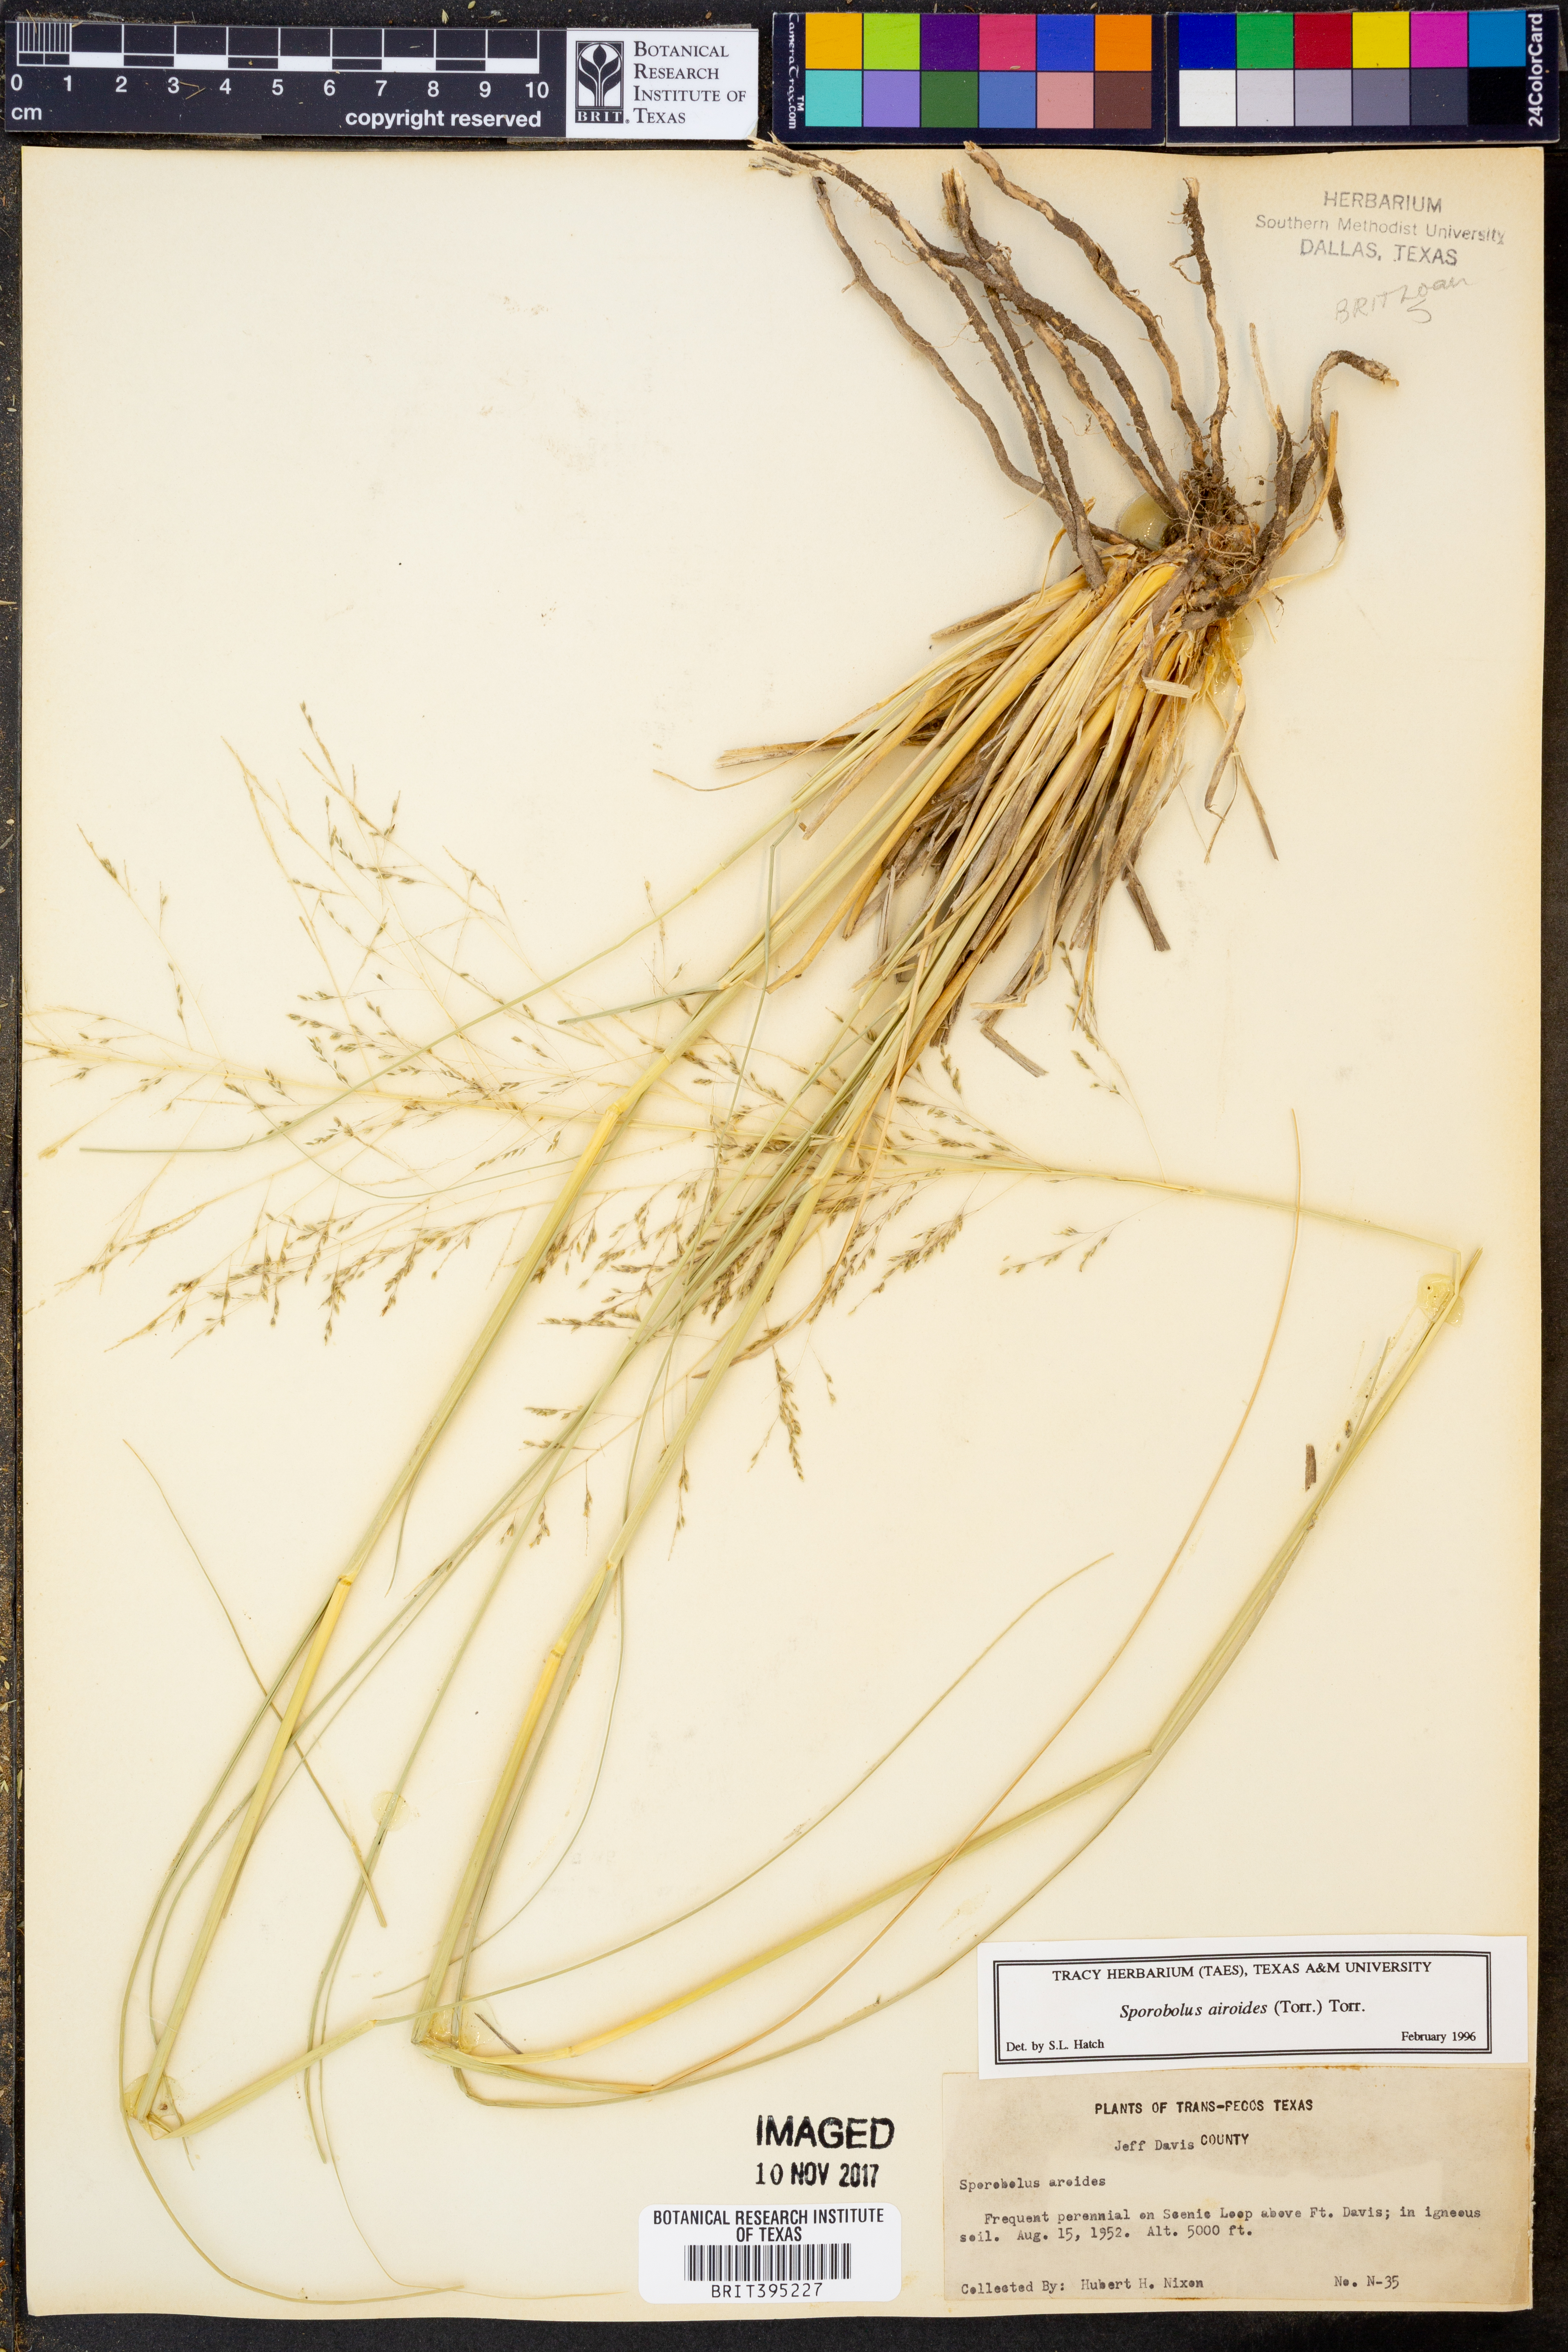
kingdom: Plantae
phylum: Tracheophyta
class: Liliopsida
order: Poales
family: Poaceae
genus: Sporobolus
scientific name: Sporobolus airoides
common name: Alkali sacaton
